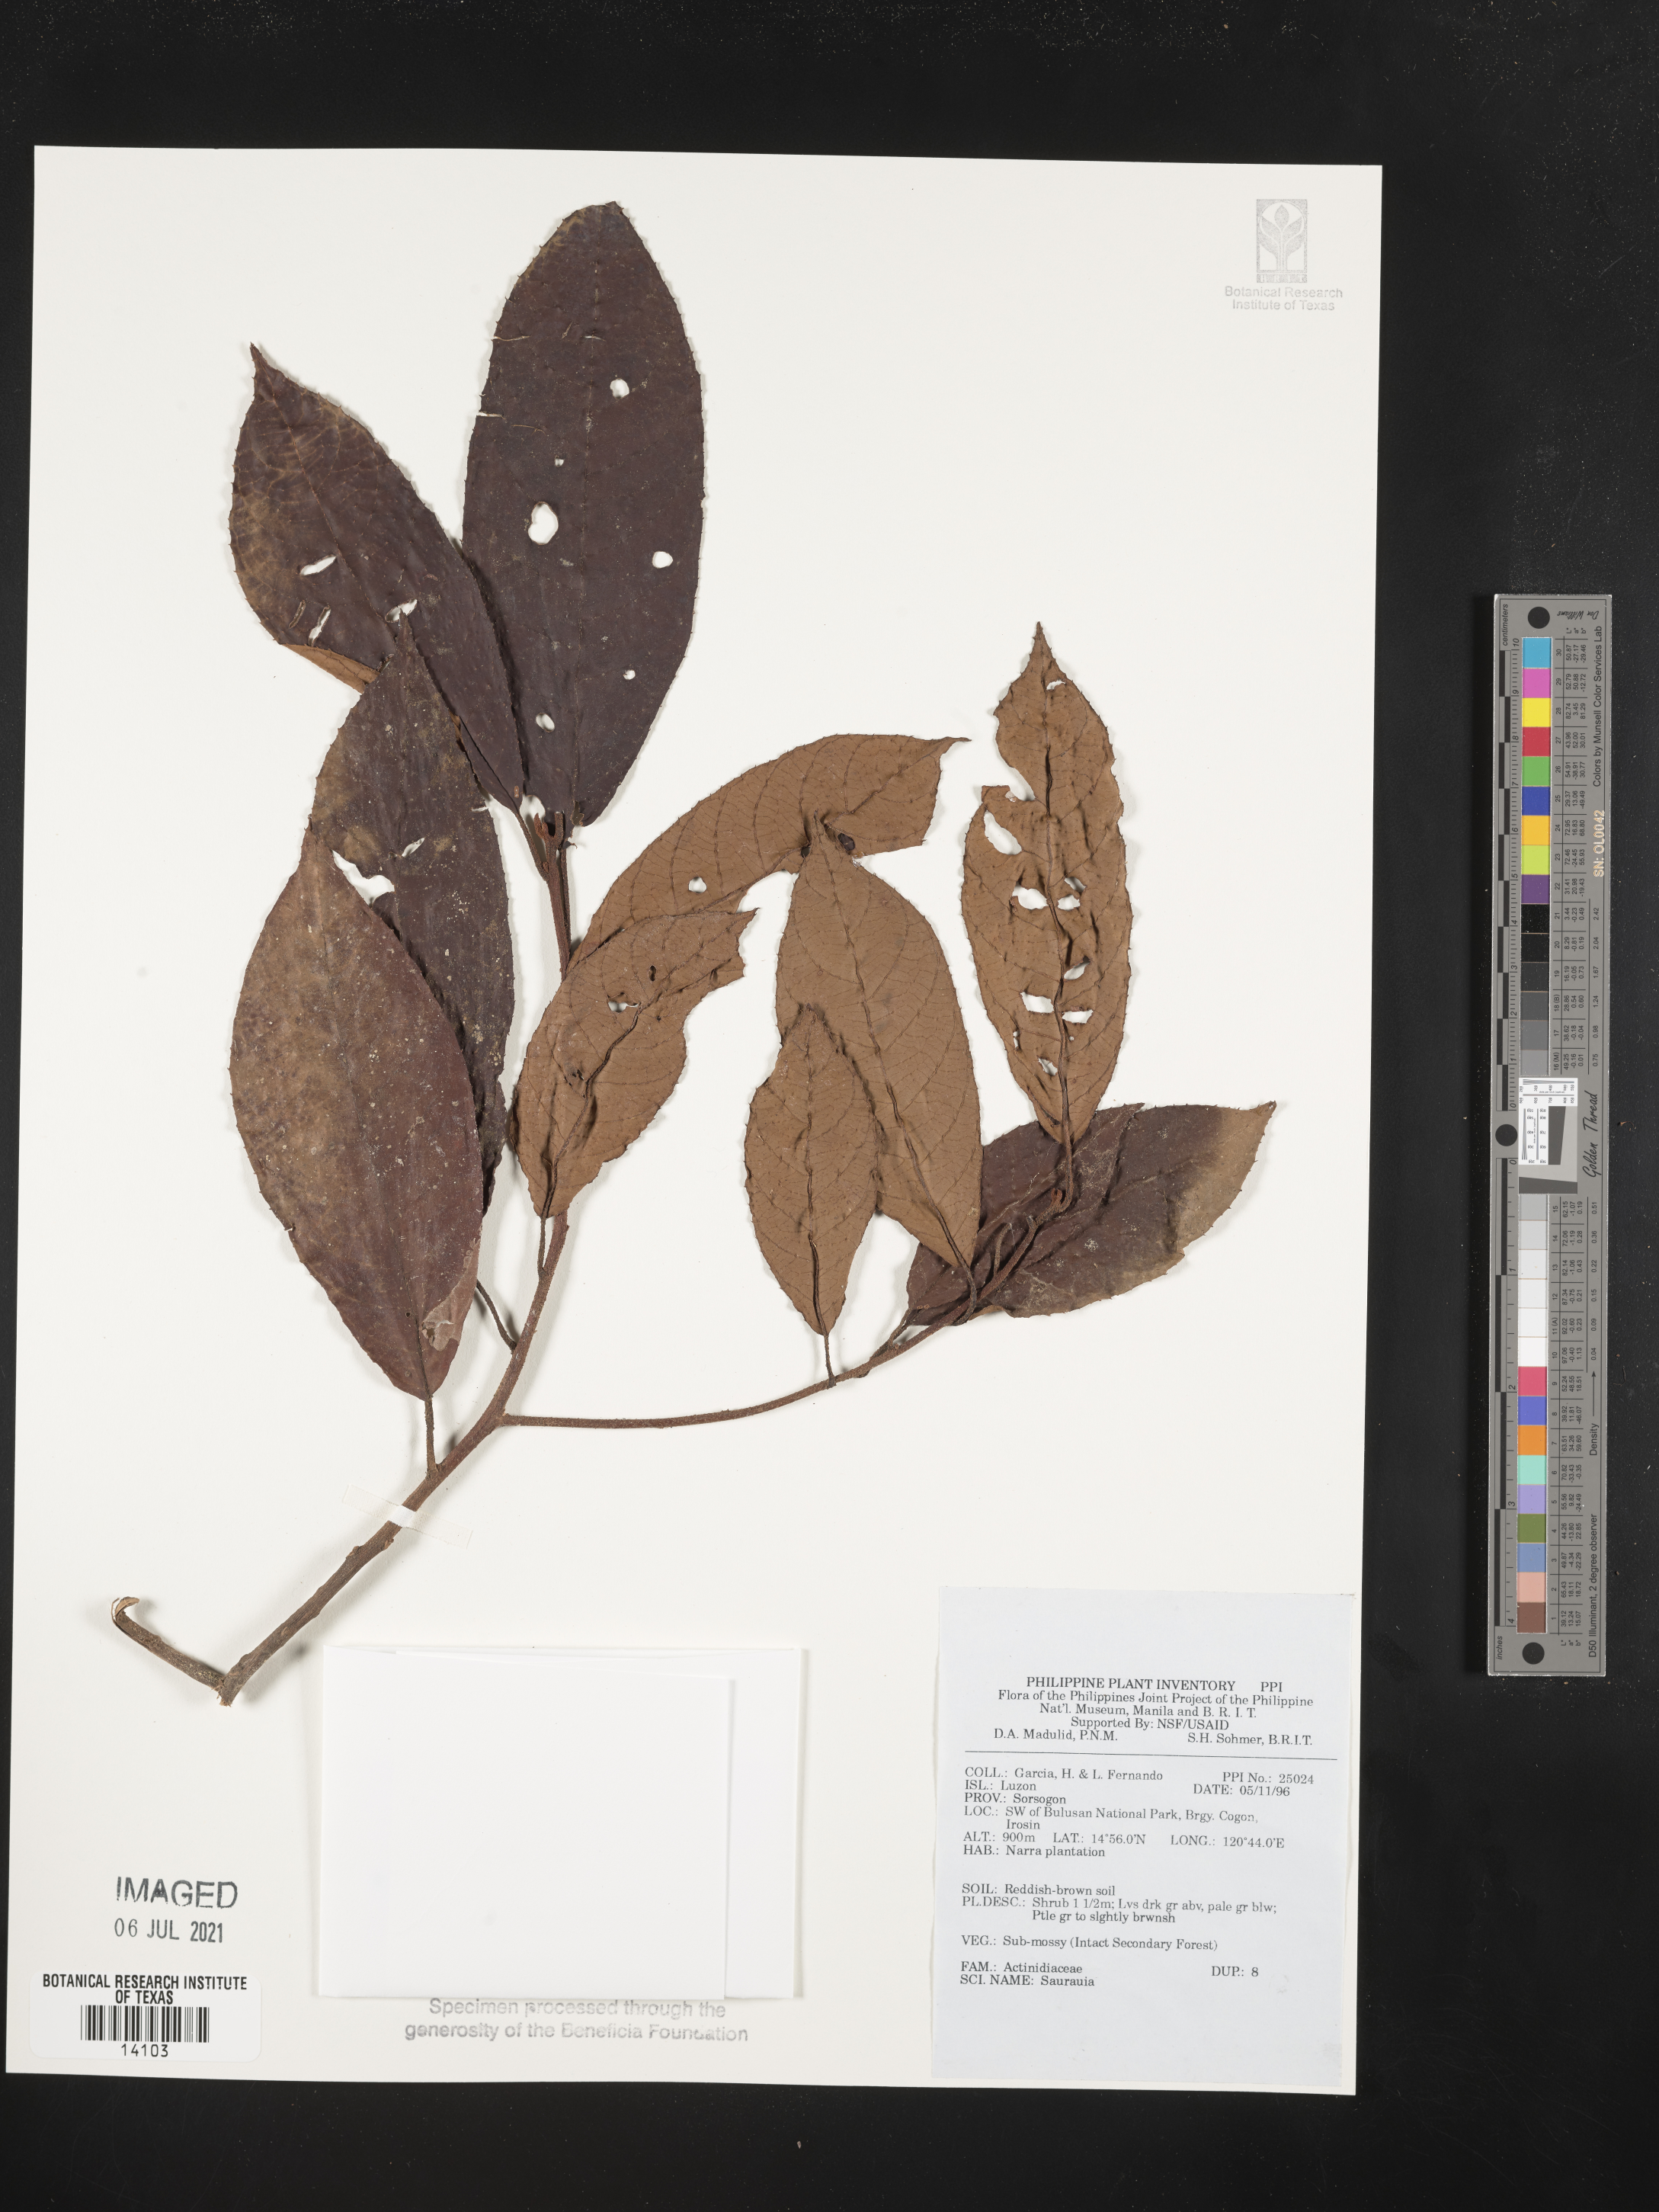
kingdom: Plantae
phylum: Tracheophyta
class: Magnoliopsida
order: Ericales
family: Actinidiaceae
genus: Saurauia
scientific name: Saurauia
